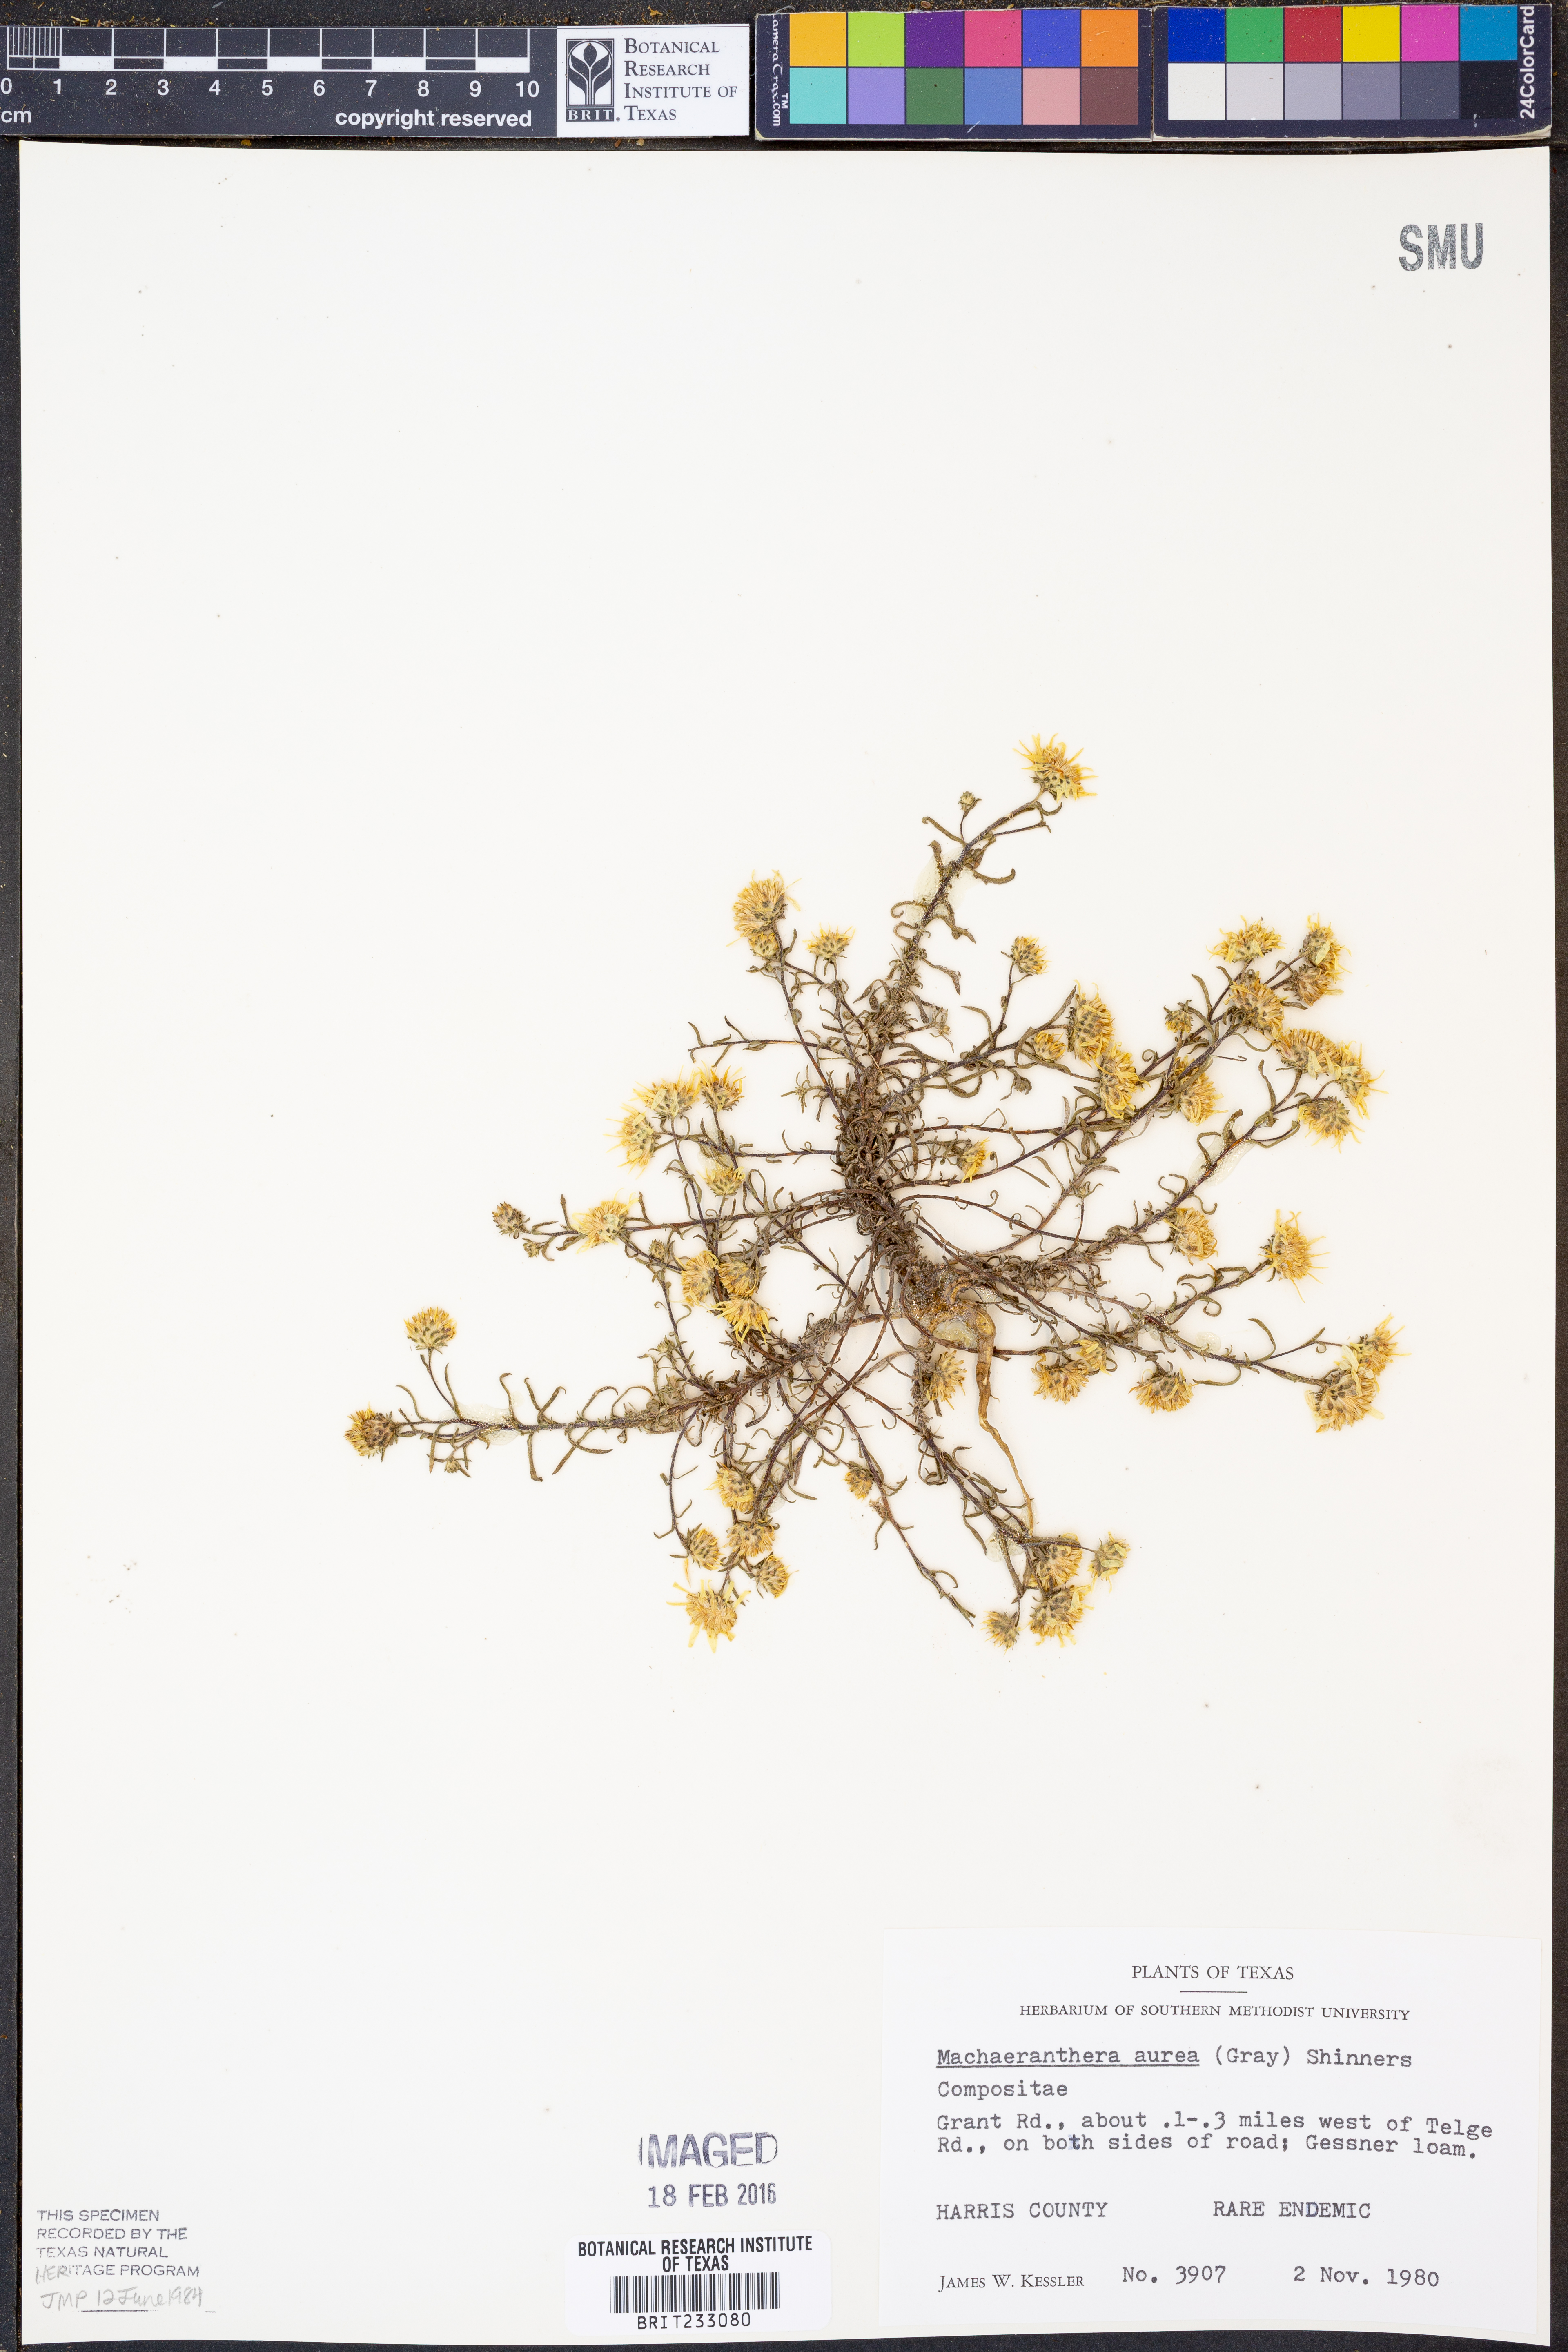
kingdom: Plantae
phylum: Tracheophyta
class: Magnoliopsida
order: Asterales
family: Asteraceae
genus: Rayjacksonia
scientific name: Rayjacksonia aurea
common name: Houston camphor daisy
